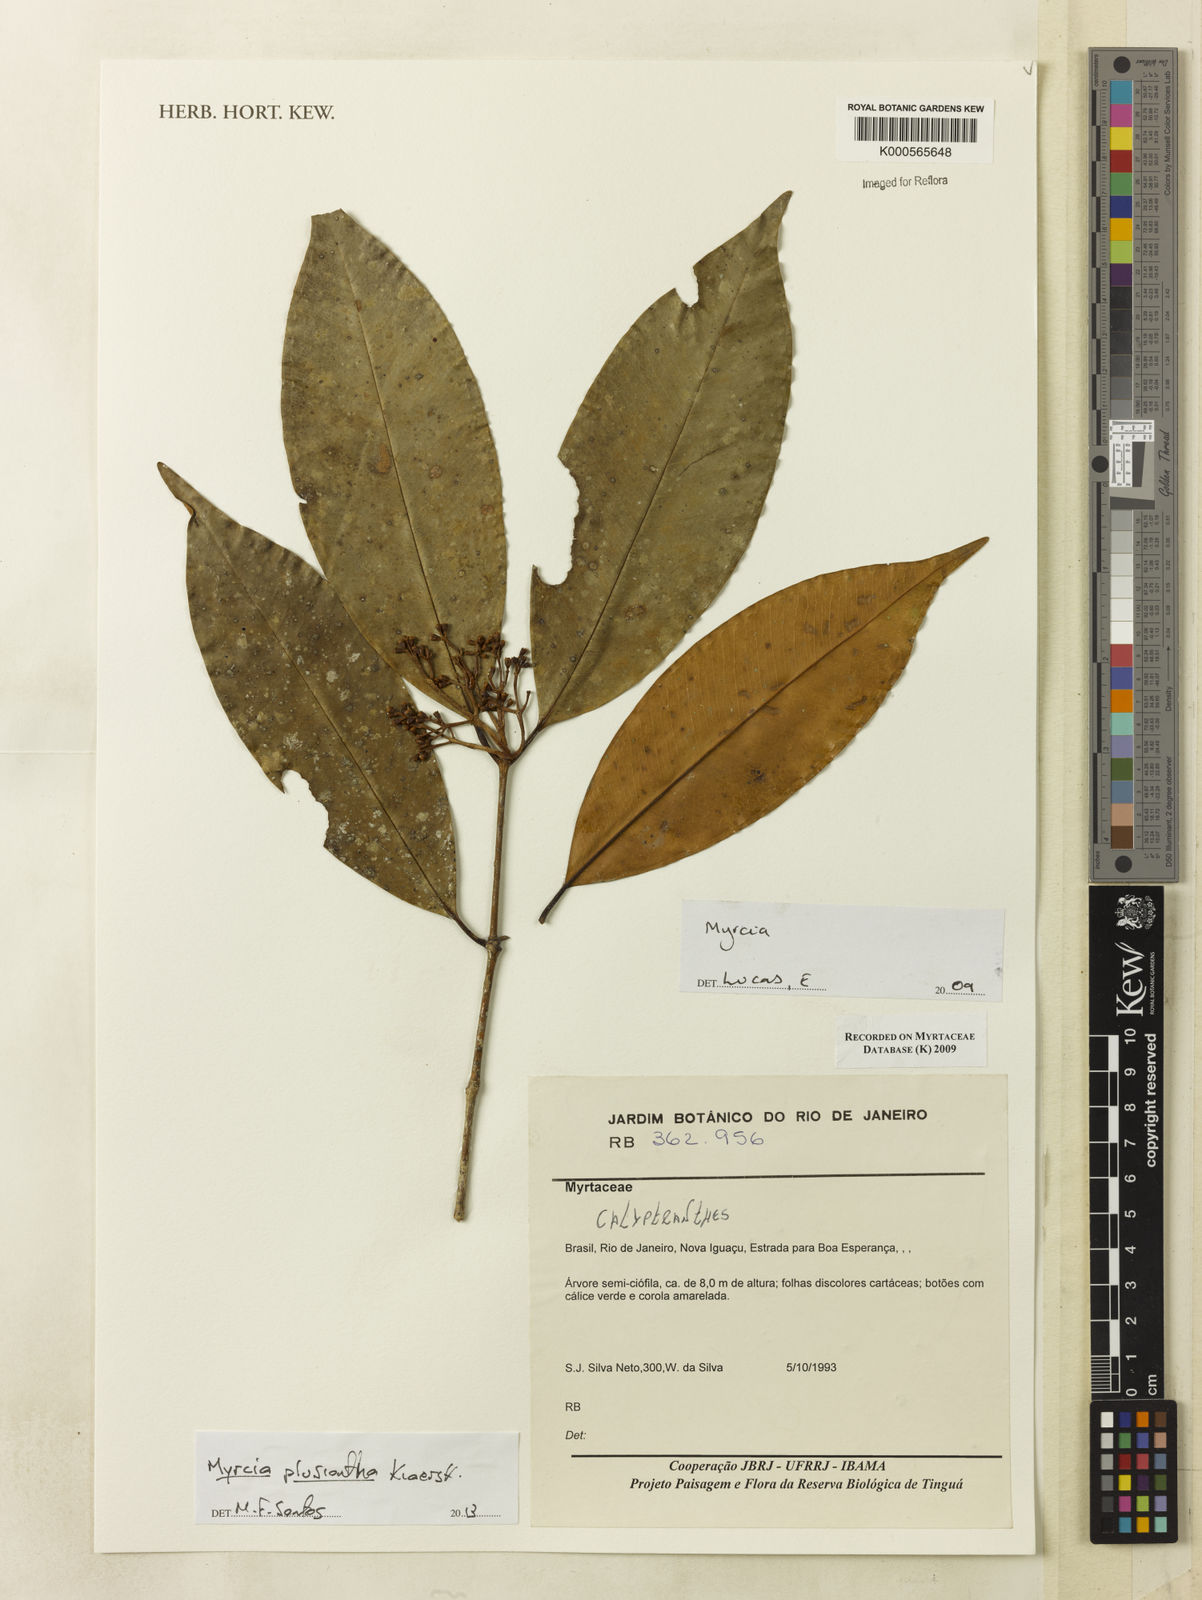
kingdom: Plantae
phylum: Tracheophyta
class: Magnoliopsida
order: Myrtales
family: Myrtaceae
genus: Myrcia
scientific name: Myrcia plusiantha
